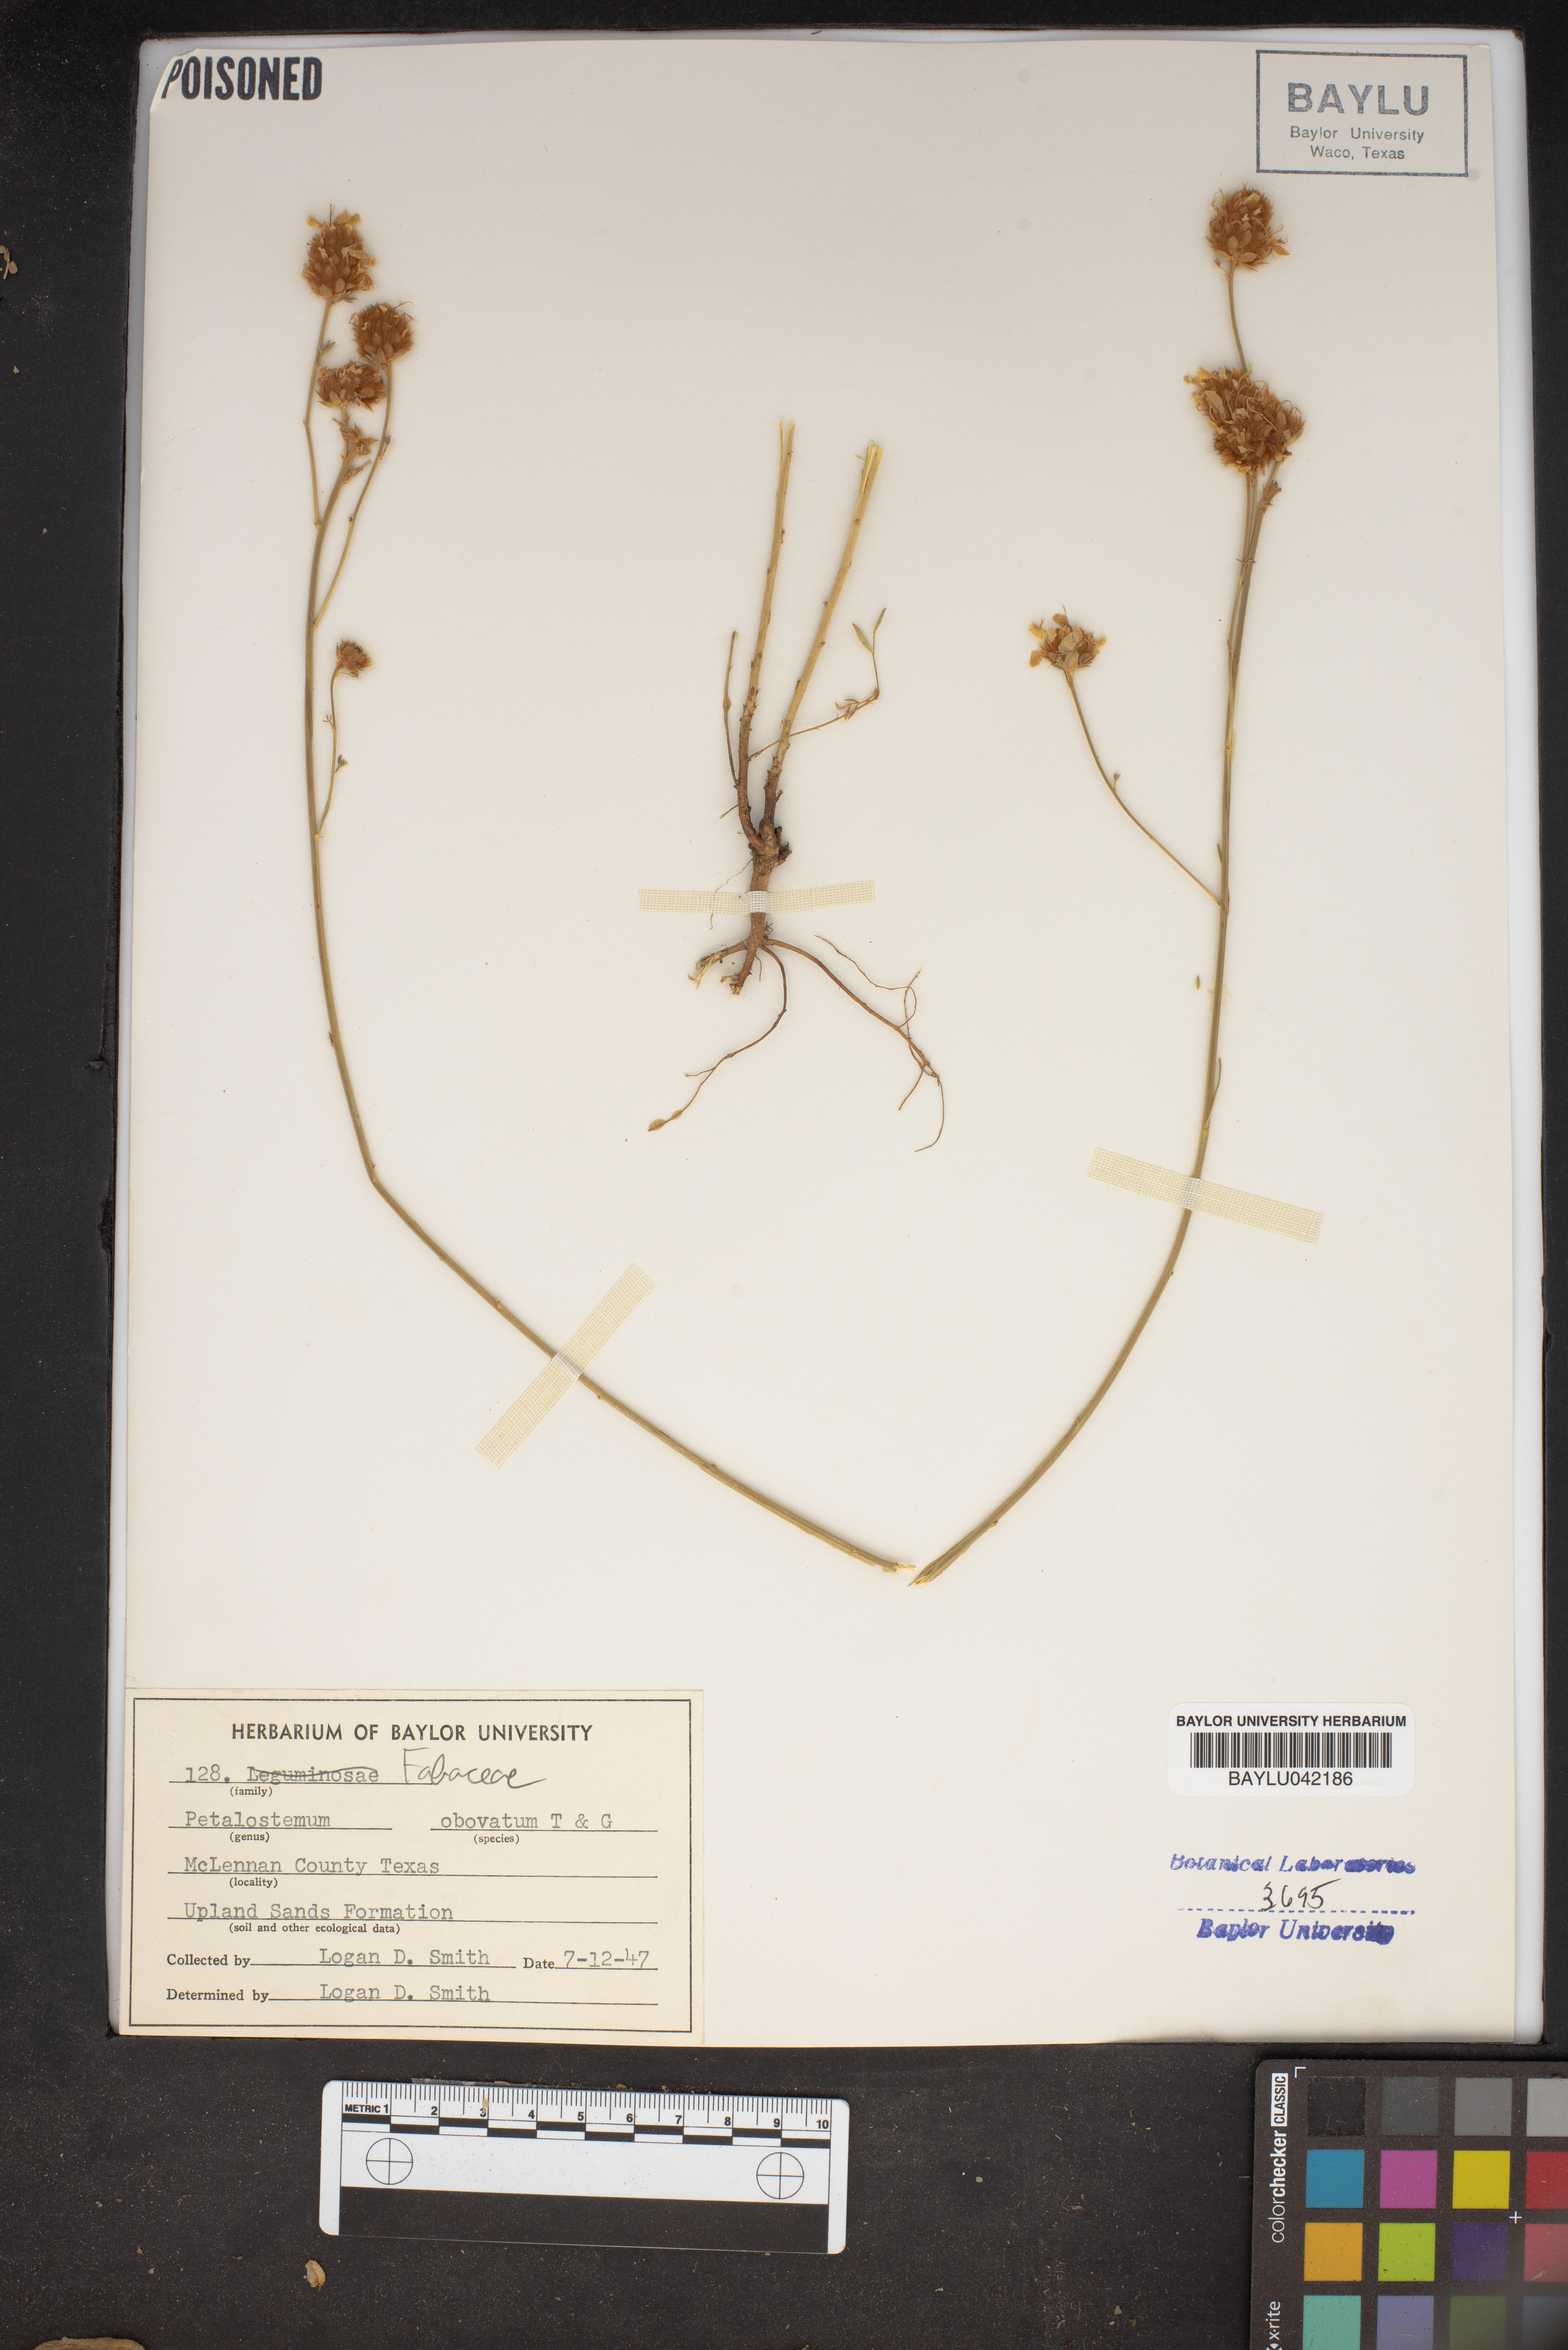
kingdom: Plantae
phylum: Tracheophyta
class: Magnoliopsida
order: Fabales
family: Fabaceae
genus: Dalea
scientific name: Dalea obovata
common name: Pussyfoot
